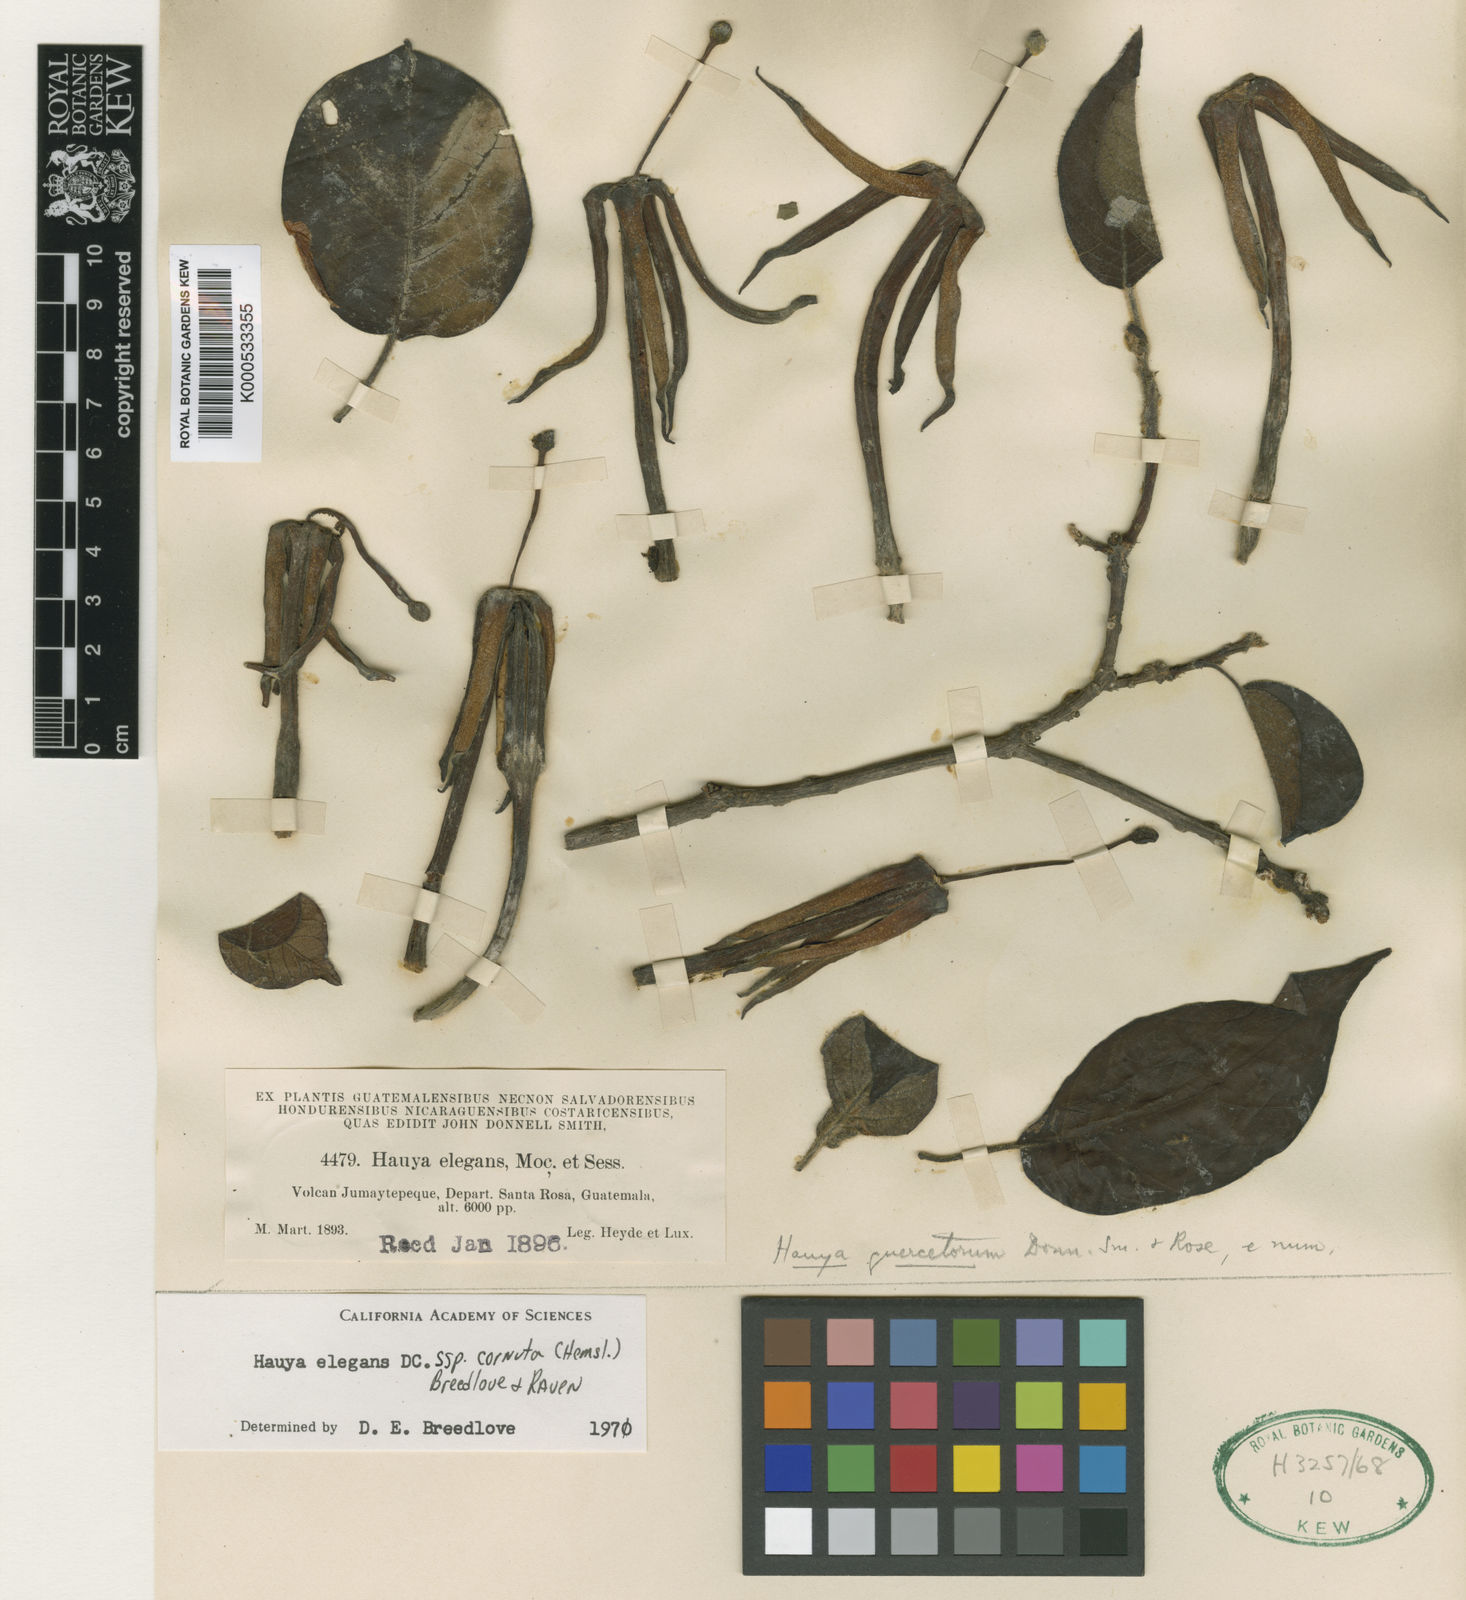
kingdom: Plantae
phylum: Tracheophyta
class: Magnoliopsida
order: Myrtales
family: Onagraceae
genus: Hauya
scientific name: Hauya elegans
